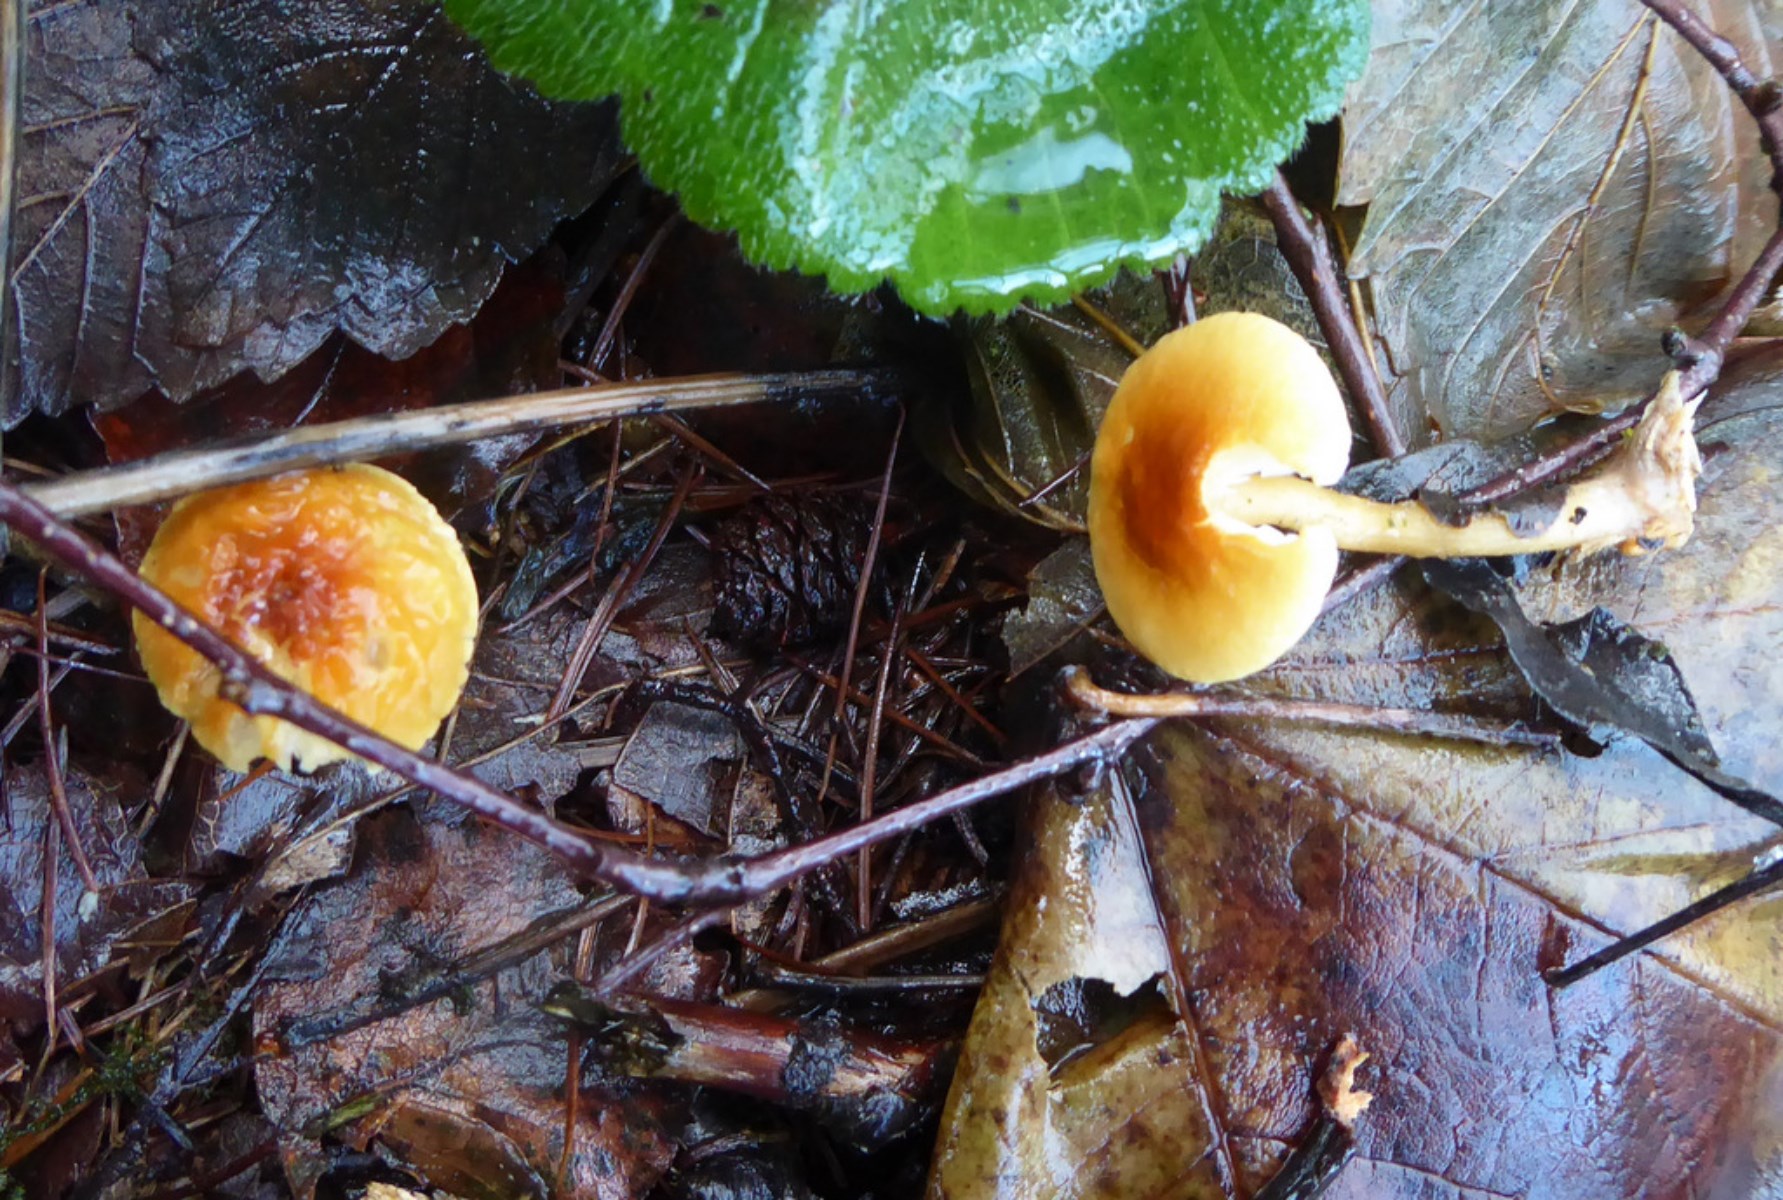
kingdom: Fungi
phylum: Basidiomycota
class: Agaricomycetes
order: Agaricales
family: Tricholomataceae
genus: Cystoderma
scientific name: Cystoderma simulatum
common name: ved-grynhat
